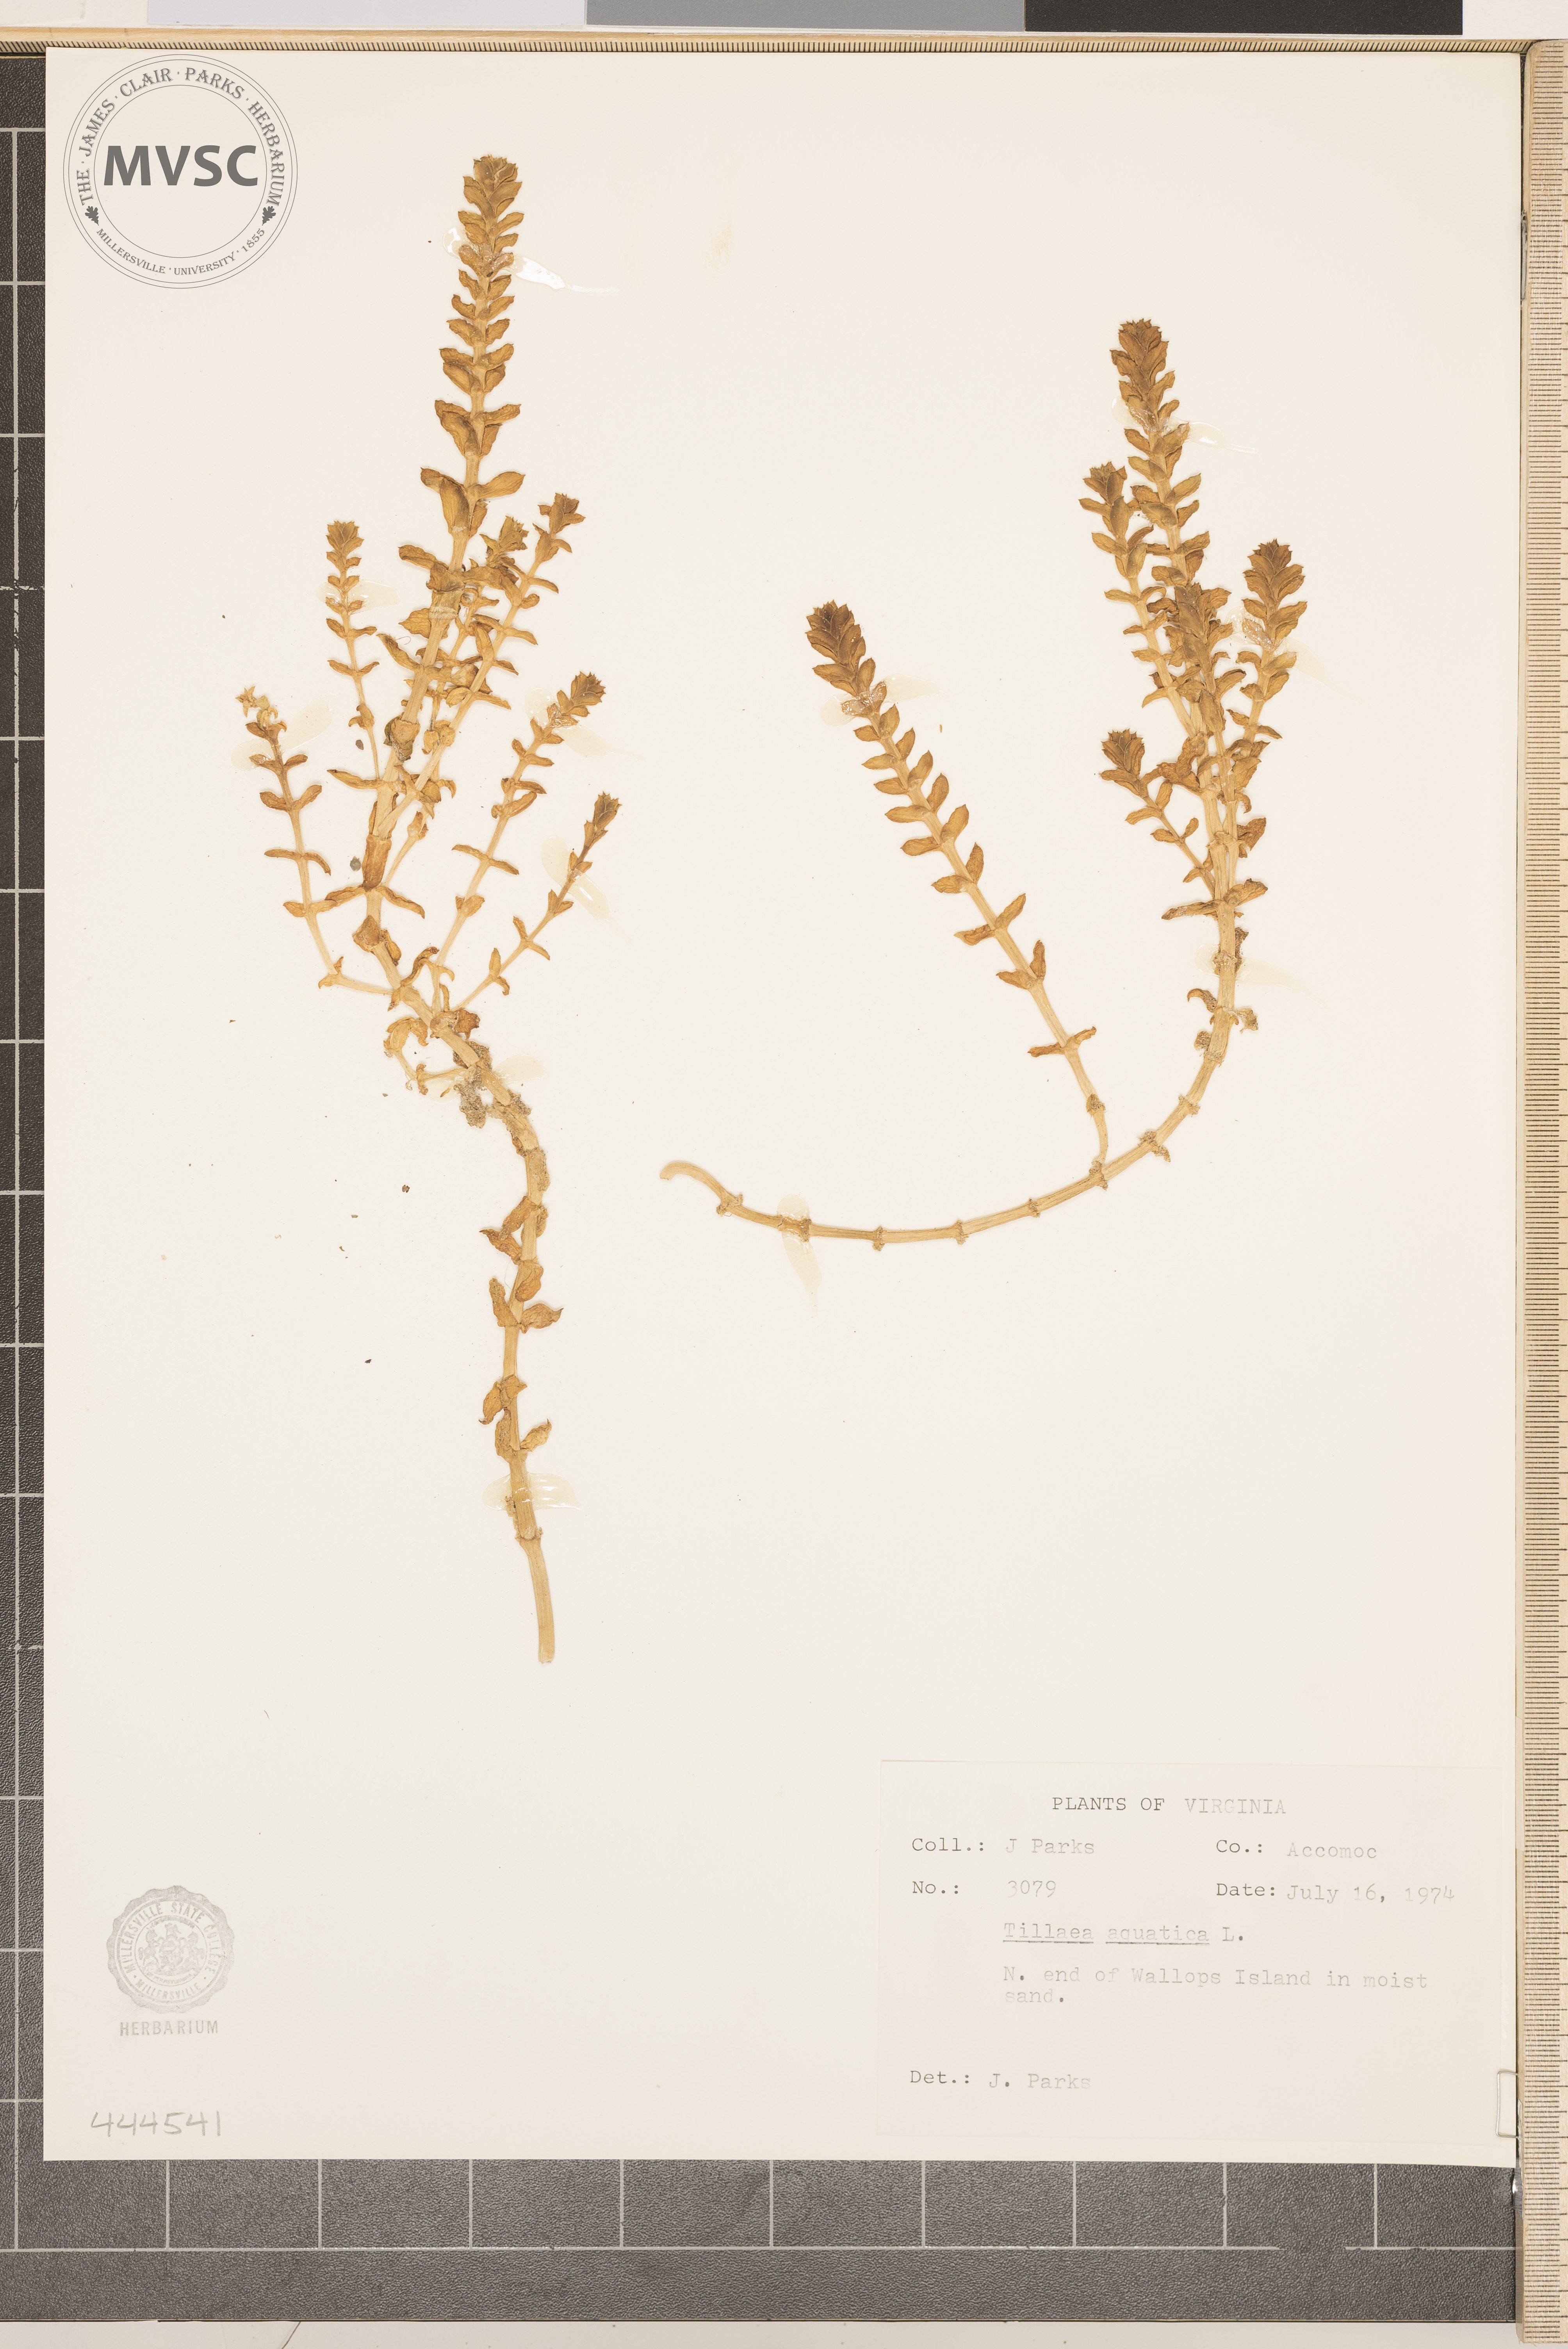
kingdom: Plantae
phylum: Tracheophyta
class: Magnoliopsida
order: Saxifragales
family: Crassulaceae
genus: Crassula
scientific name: Crassula aquatica
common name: Pigmyweed
